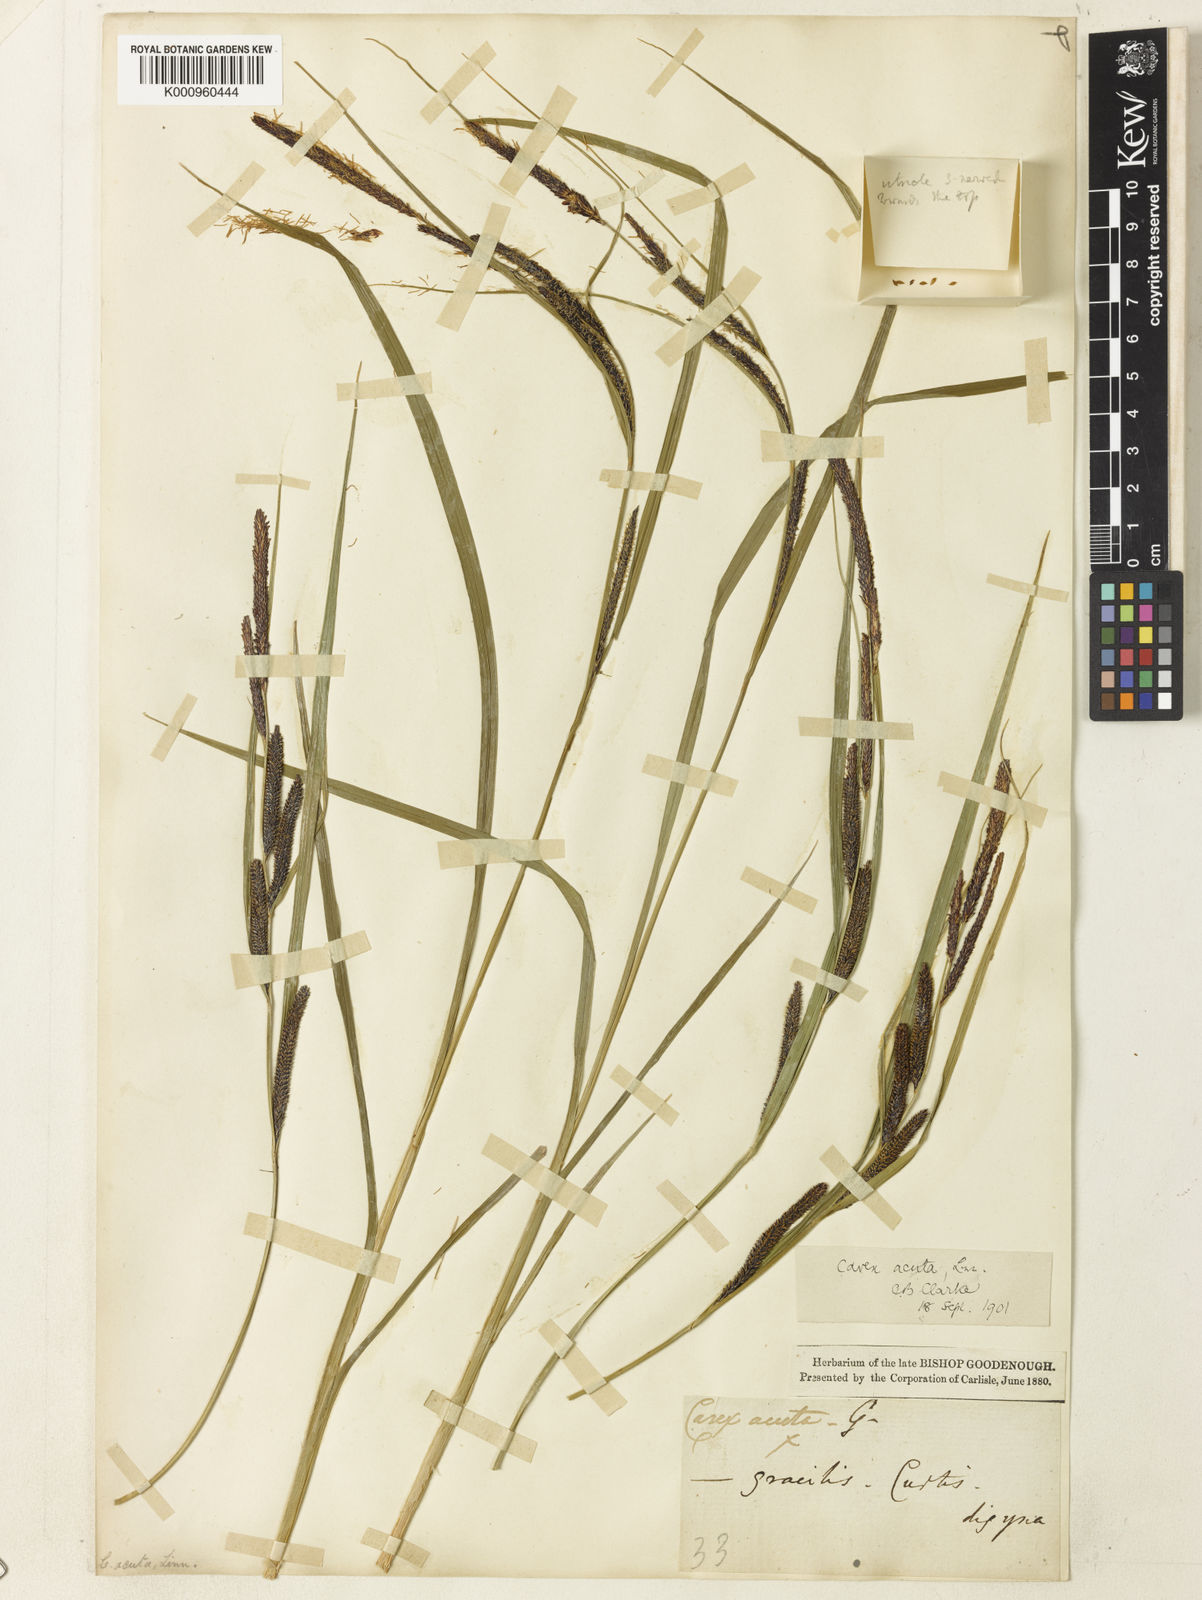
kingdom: Plantae
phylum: Tracheophyta
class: Liliopsida
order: Poales
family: Cyperaceae
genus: Carex
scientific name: Carex acuta
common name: Slender tufted-sedge
